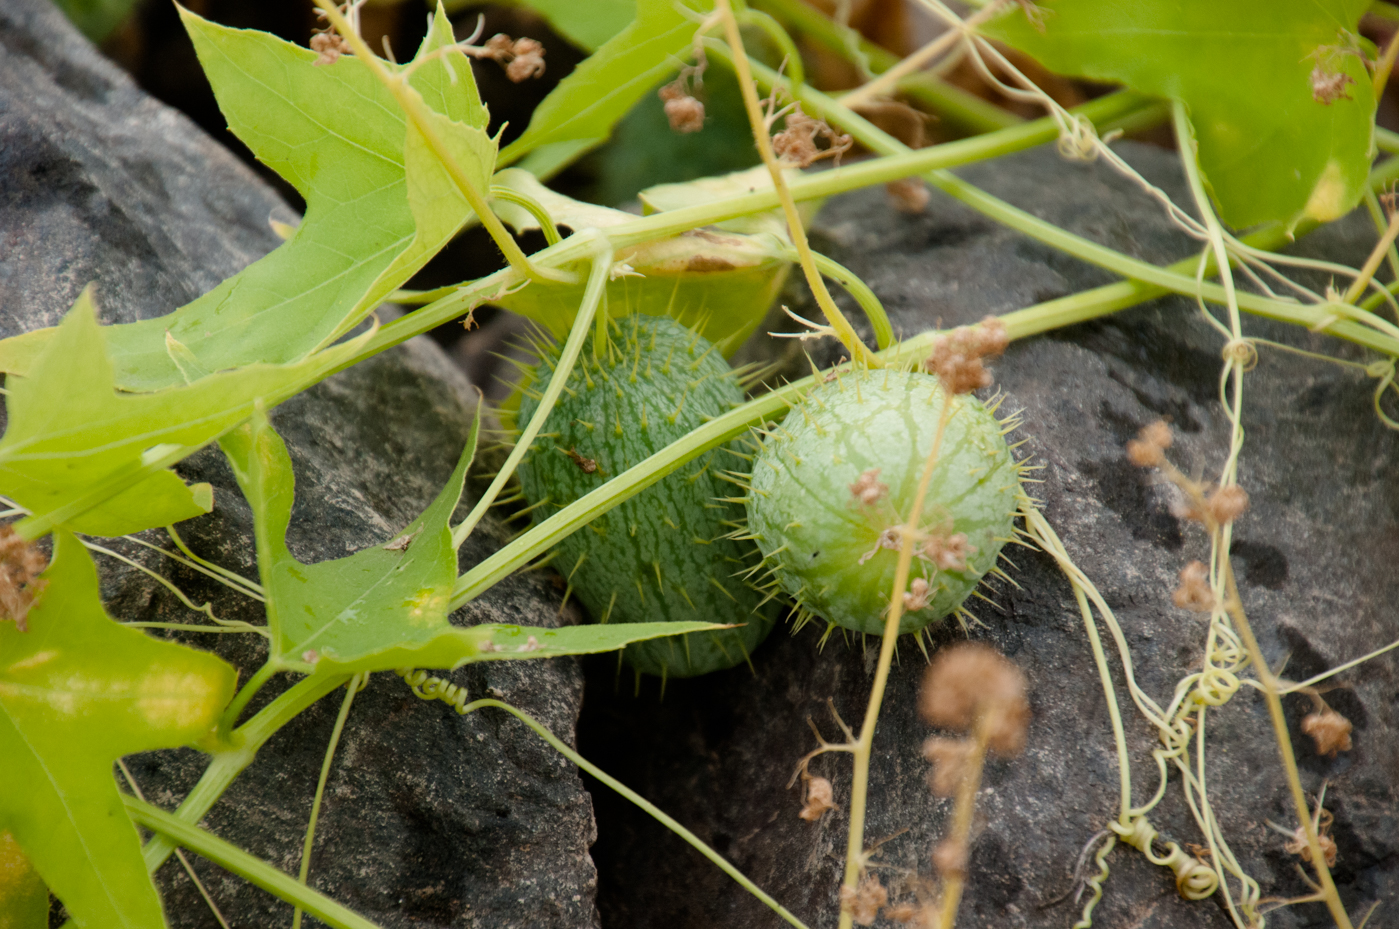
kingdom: Plantae
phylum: Tracheophyta
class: Magnoliopsida
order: Cucurbitales
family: Cucurbitaceae
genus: Echinocystis
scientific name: Echinocystis lobata
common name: Wild cucumber
